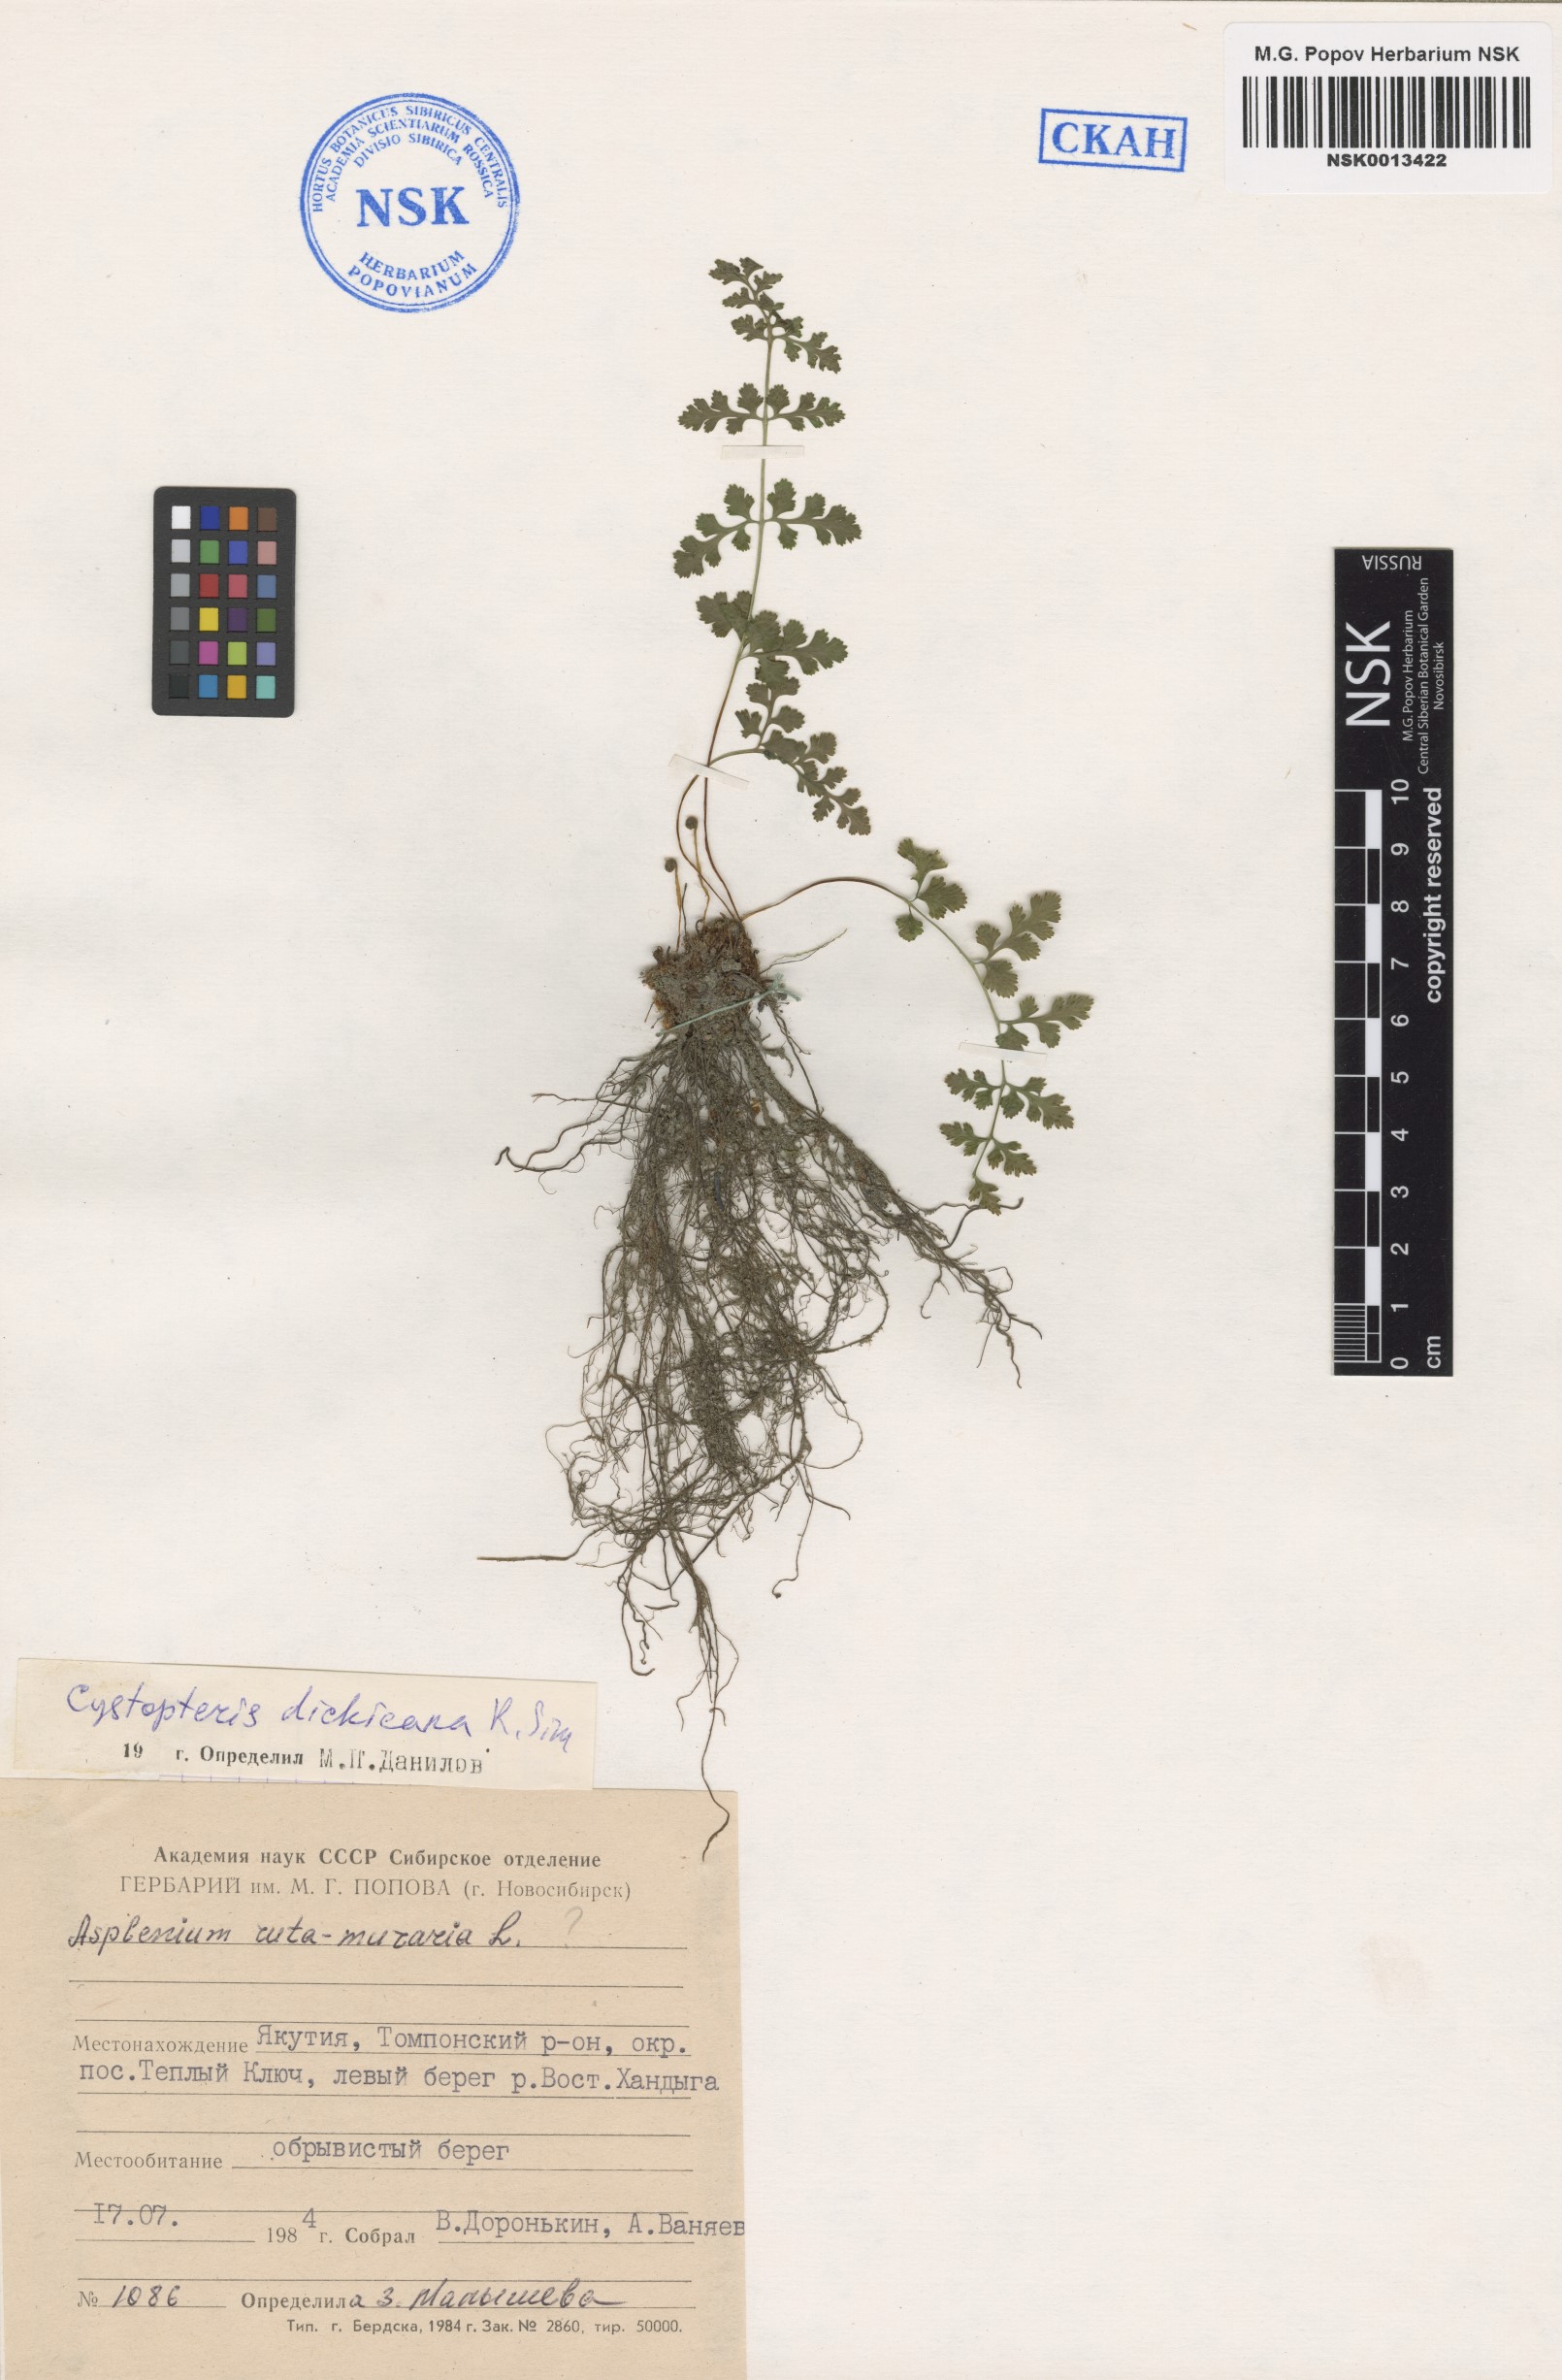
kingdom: Plantae
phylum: Tracheophyta
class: Polypodiopsida
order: Polypodiales
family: Cystopteridaceae
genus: Cystopteris
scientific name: Cystopteris dickieana
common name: Dickie's bladder-fern
